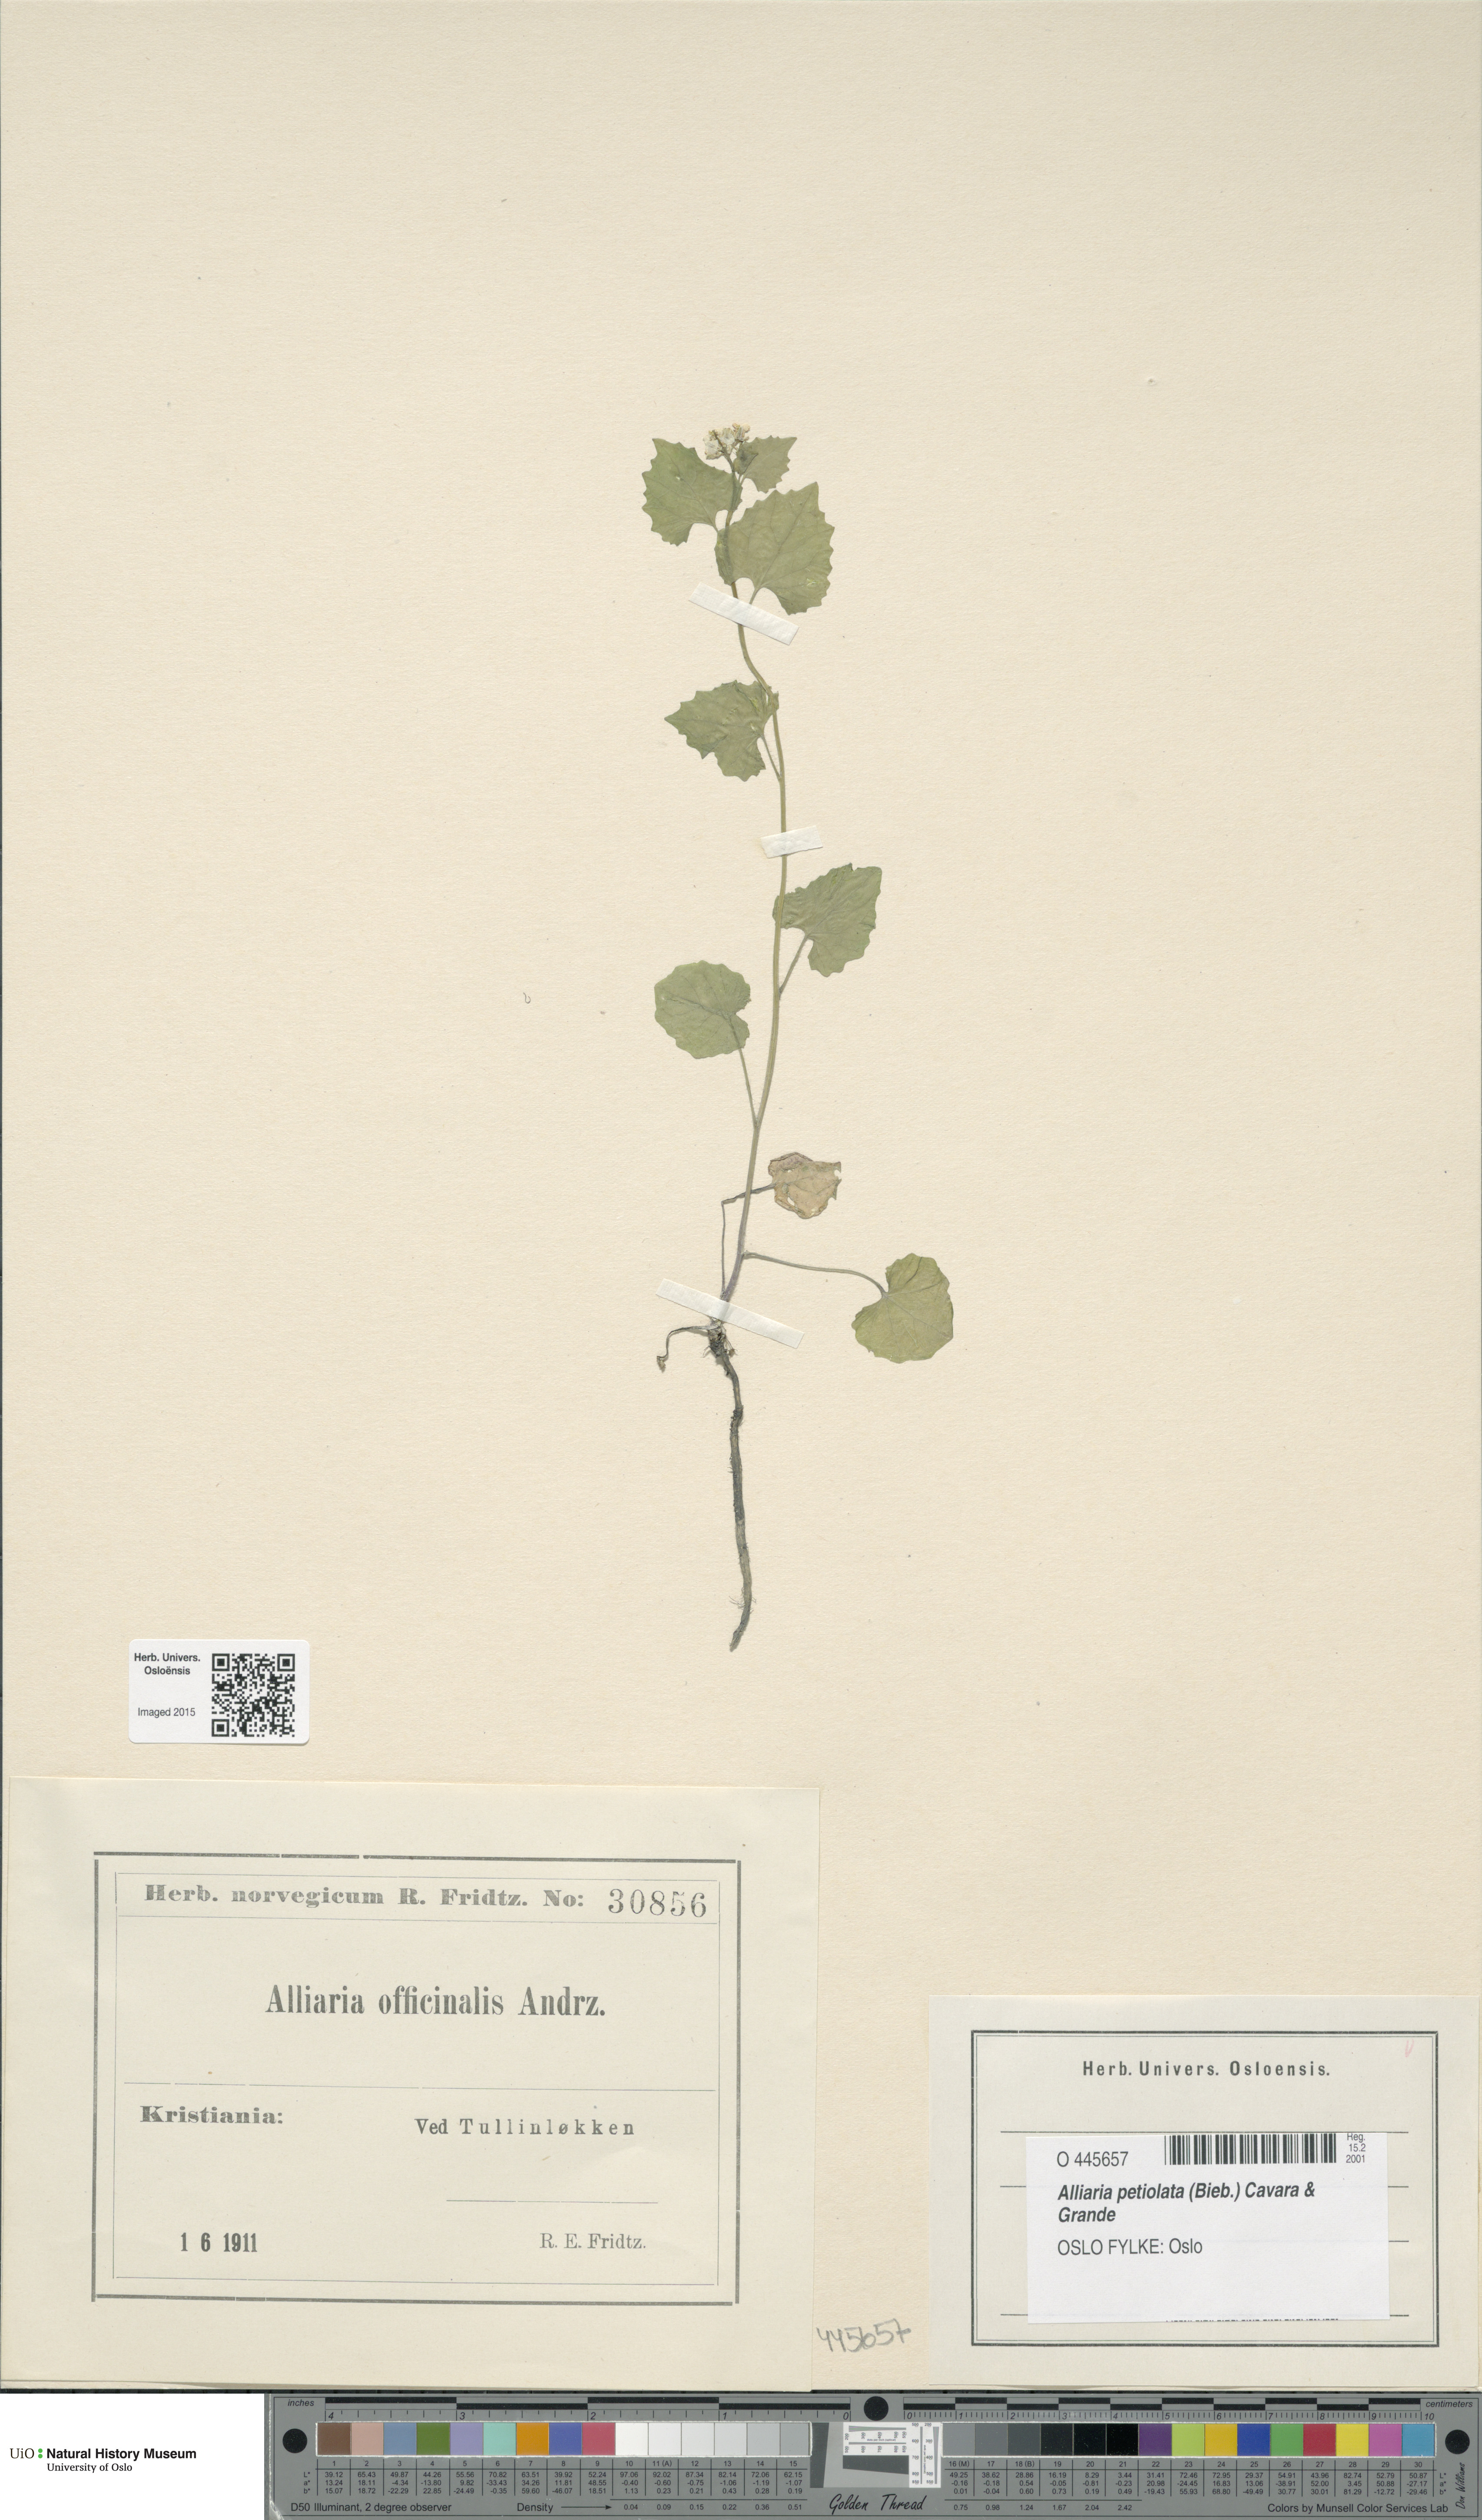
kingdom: Plantae
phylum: Tracheophyta
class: Magnoliopsida
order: Brassicales
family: Brassicaceae
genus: Alliaria
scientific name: Alliaria petiolata
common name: Garlic mustard
